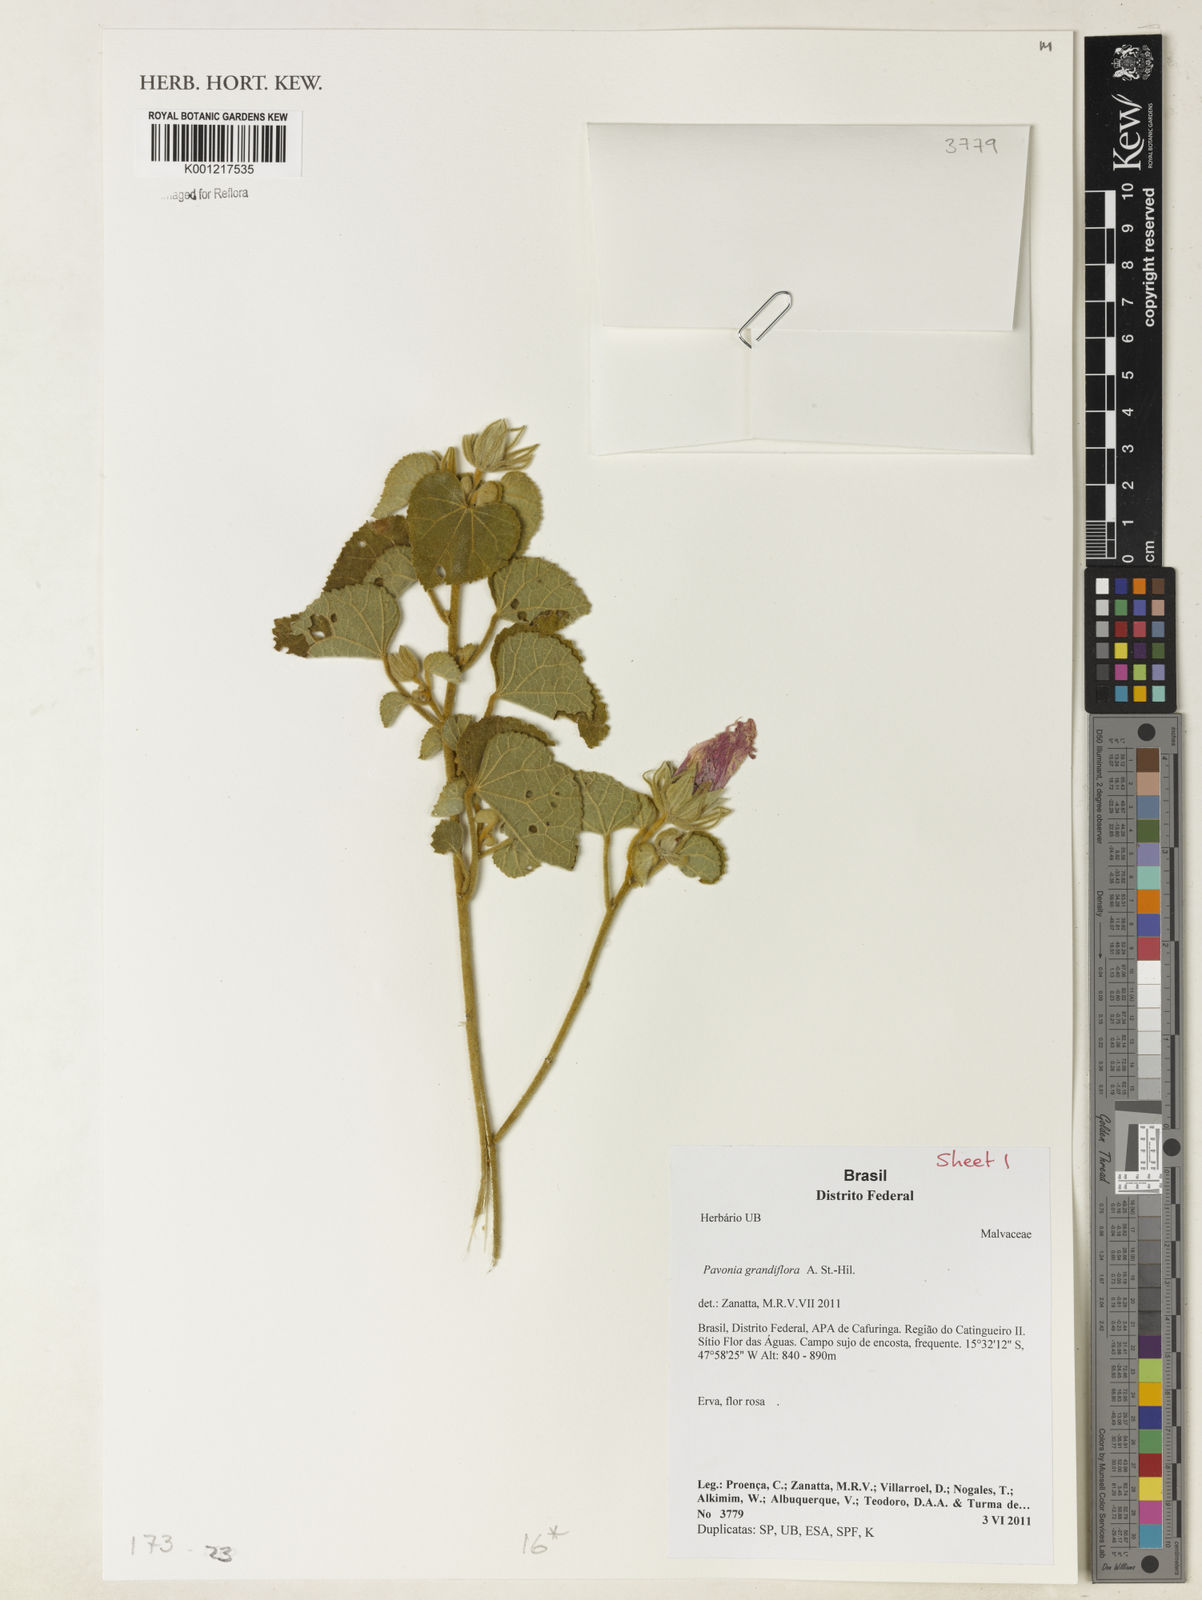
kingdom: Plantae
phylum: Tracheophyta
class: Magnoliopsida
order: Malvales
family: Malvaceae
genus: Pavonia
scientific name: Pavonia grandiflora
